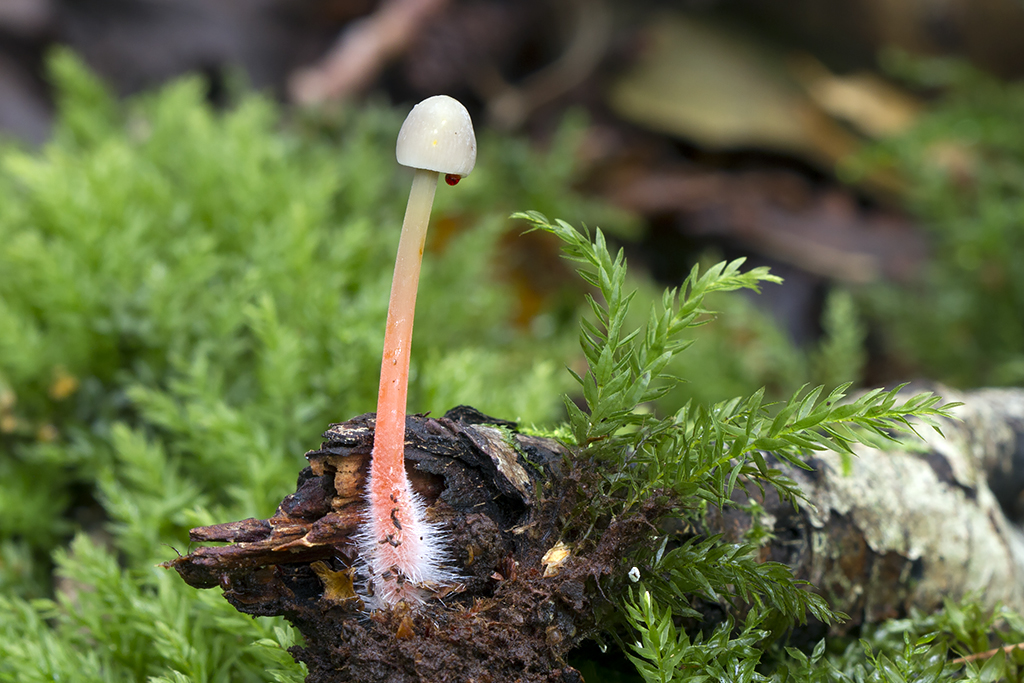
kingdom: Fungi
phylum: Basidiomycota
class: Agaricomycetes
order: Agaricales
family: Mycenaceae
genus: Mycena
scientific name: Mycena crocata
